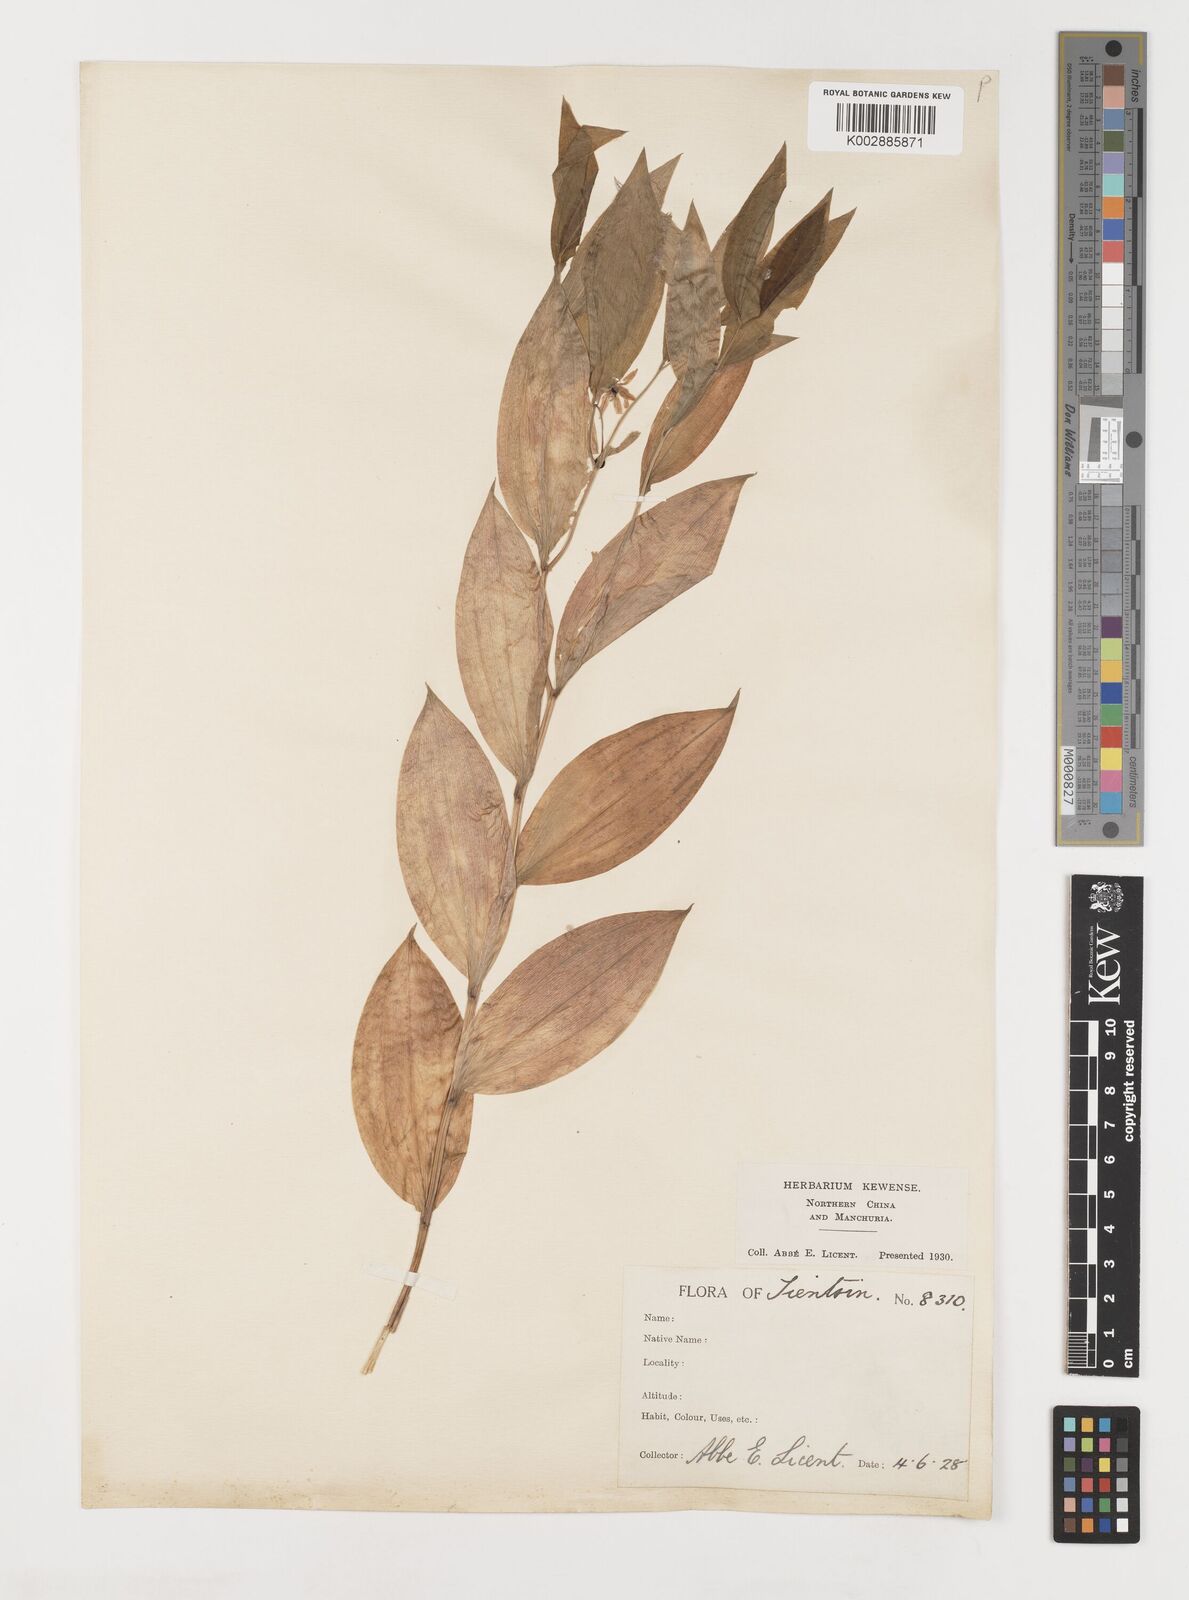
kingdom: Plantae
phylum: Tracheophyta
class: Liliopsida
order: Liliales
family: Liliaceae
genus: Streptopus
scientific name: Streptopus
